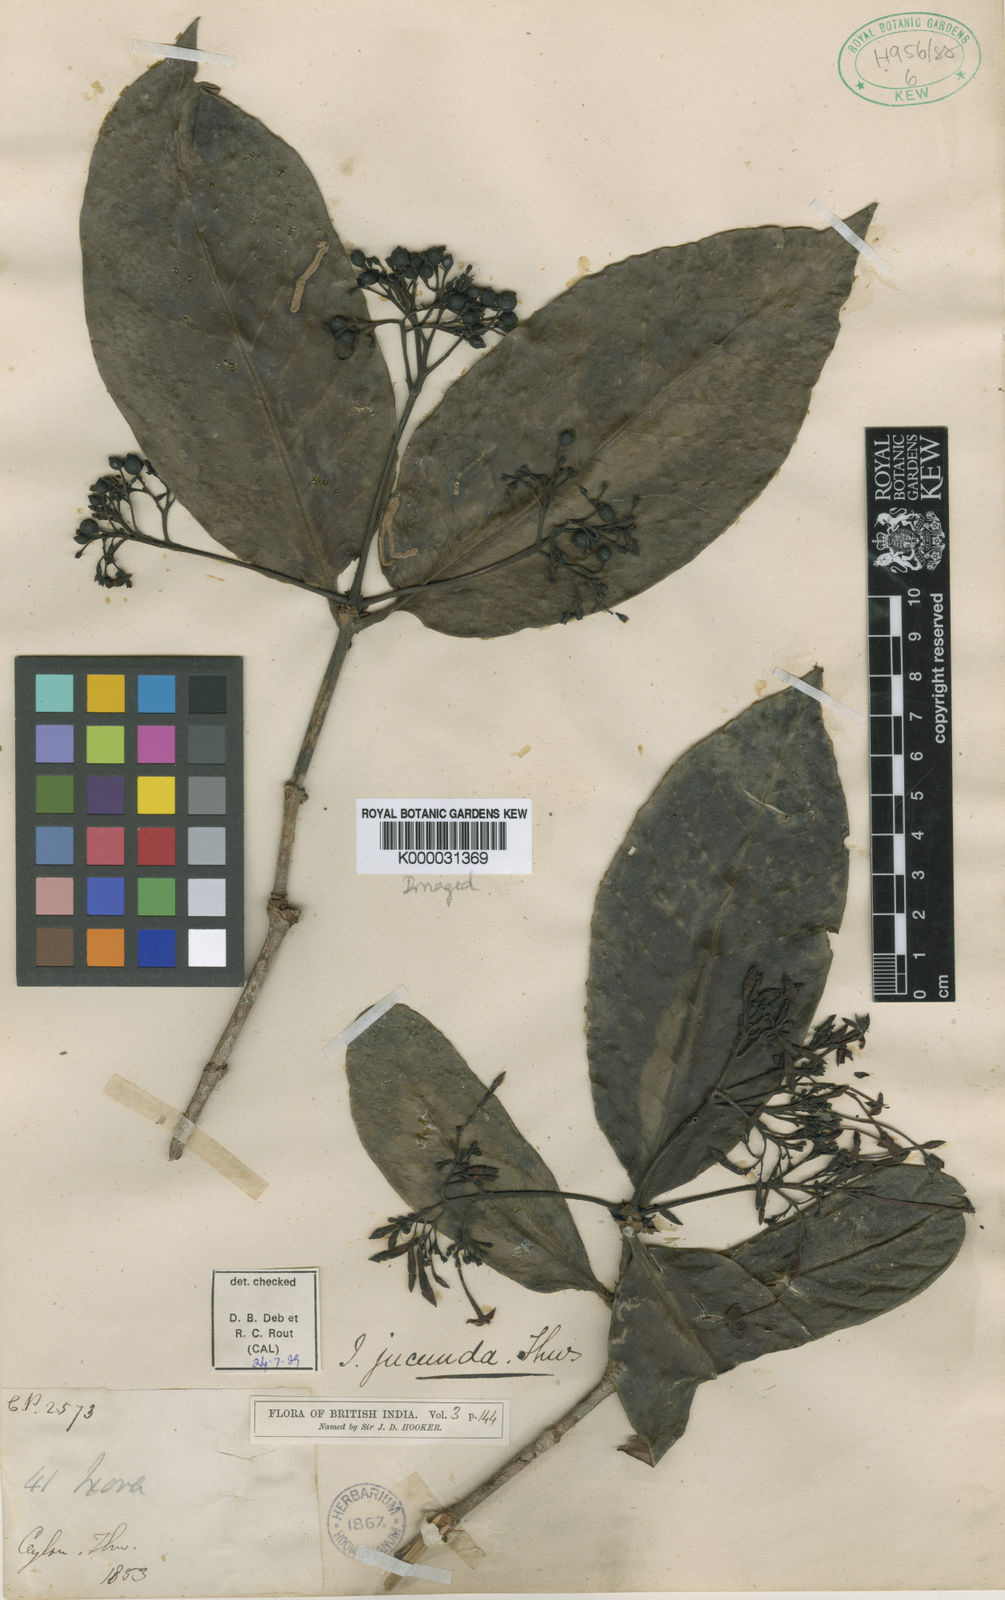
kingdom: Plantae
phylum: Tracheophyta
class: Magnoliopsida
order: Gentianales
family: Rubiaceae
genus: Ixora
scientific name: Ixora jucunda
